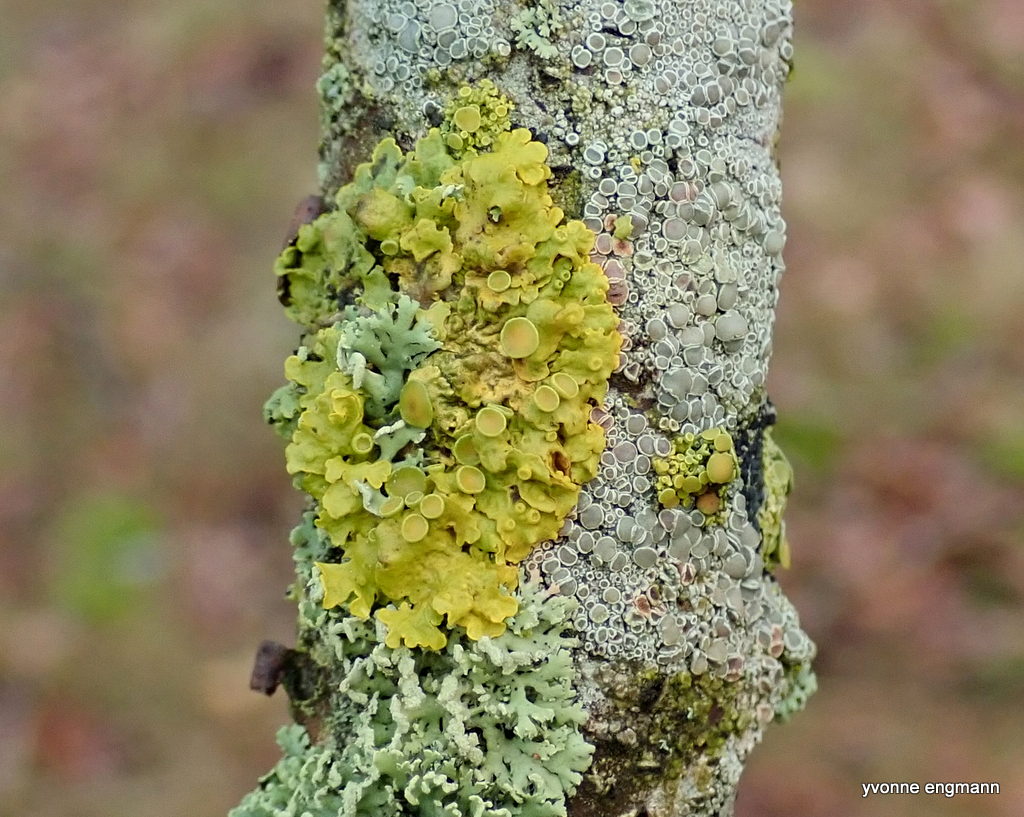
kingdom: Fungi
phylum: Ascomycota
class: Lecanoromycetes
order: Teloschistales
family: Teloschistaceae
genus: Xanthoria
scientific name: Xanthoria parietina
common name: almindelig væggelav
